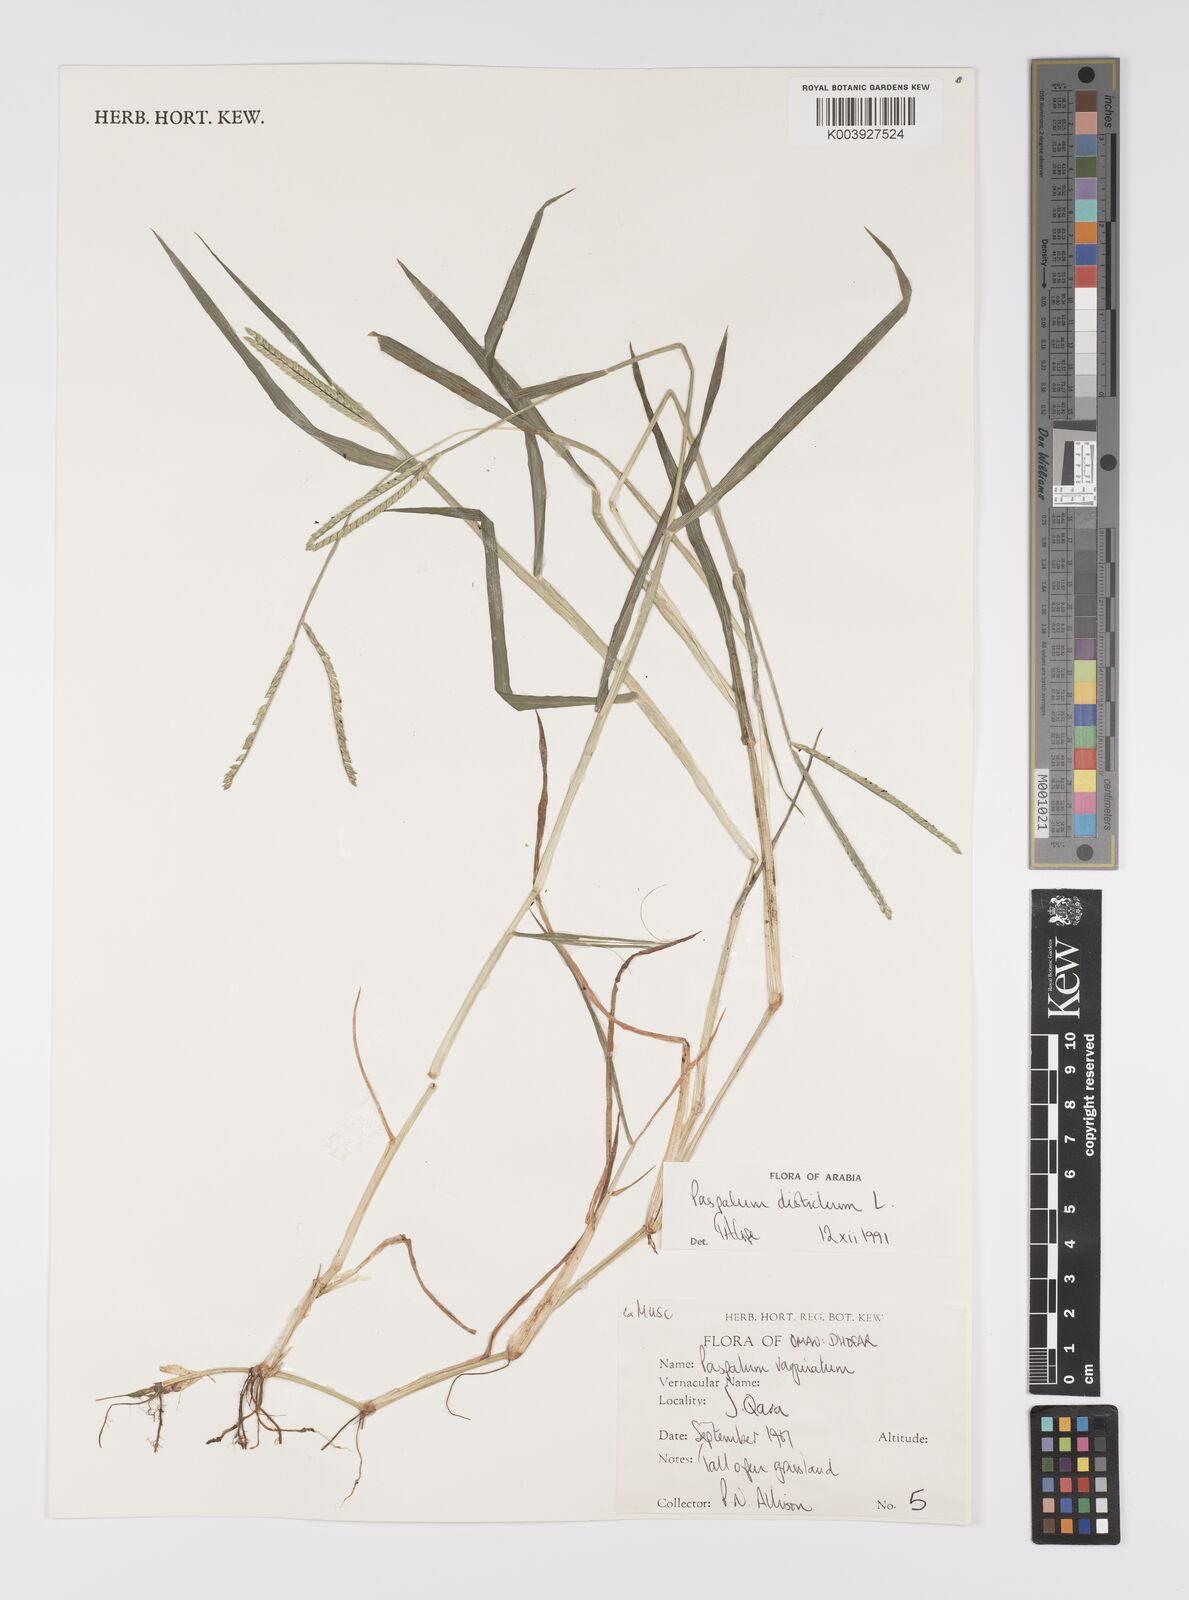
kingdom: Plantae
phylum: Tracheophyta
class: Liliopsida
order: Poales
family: Poaceae
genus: Paspalum
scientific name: Paspalum distichum
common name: Knotgrass
